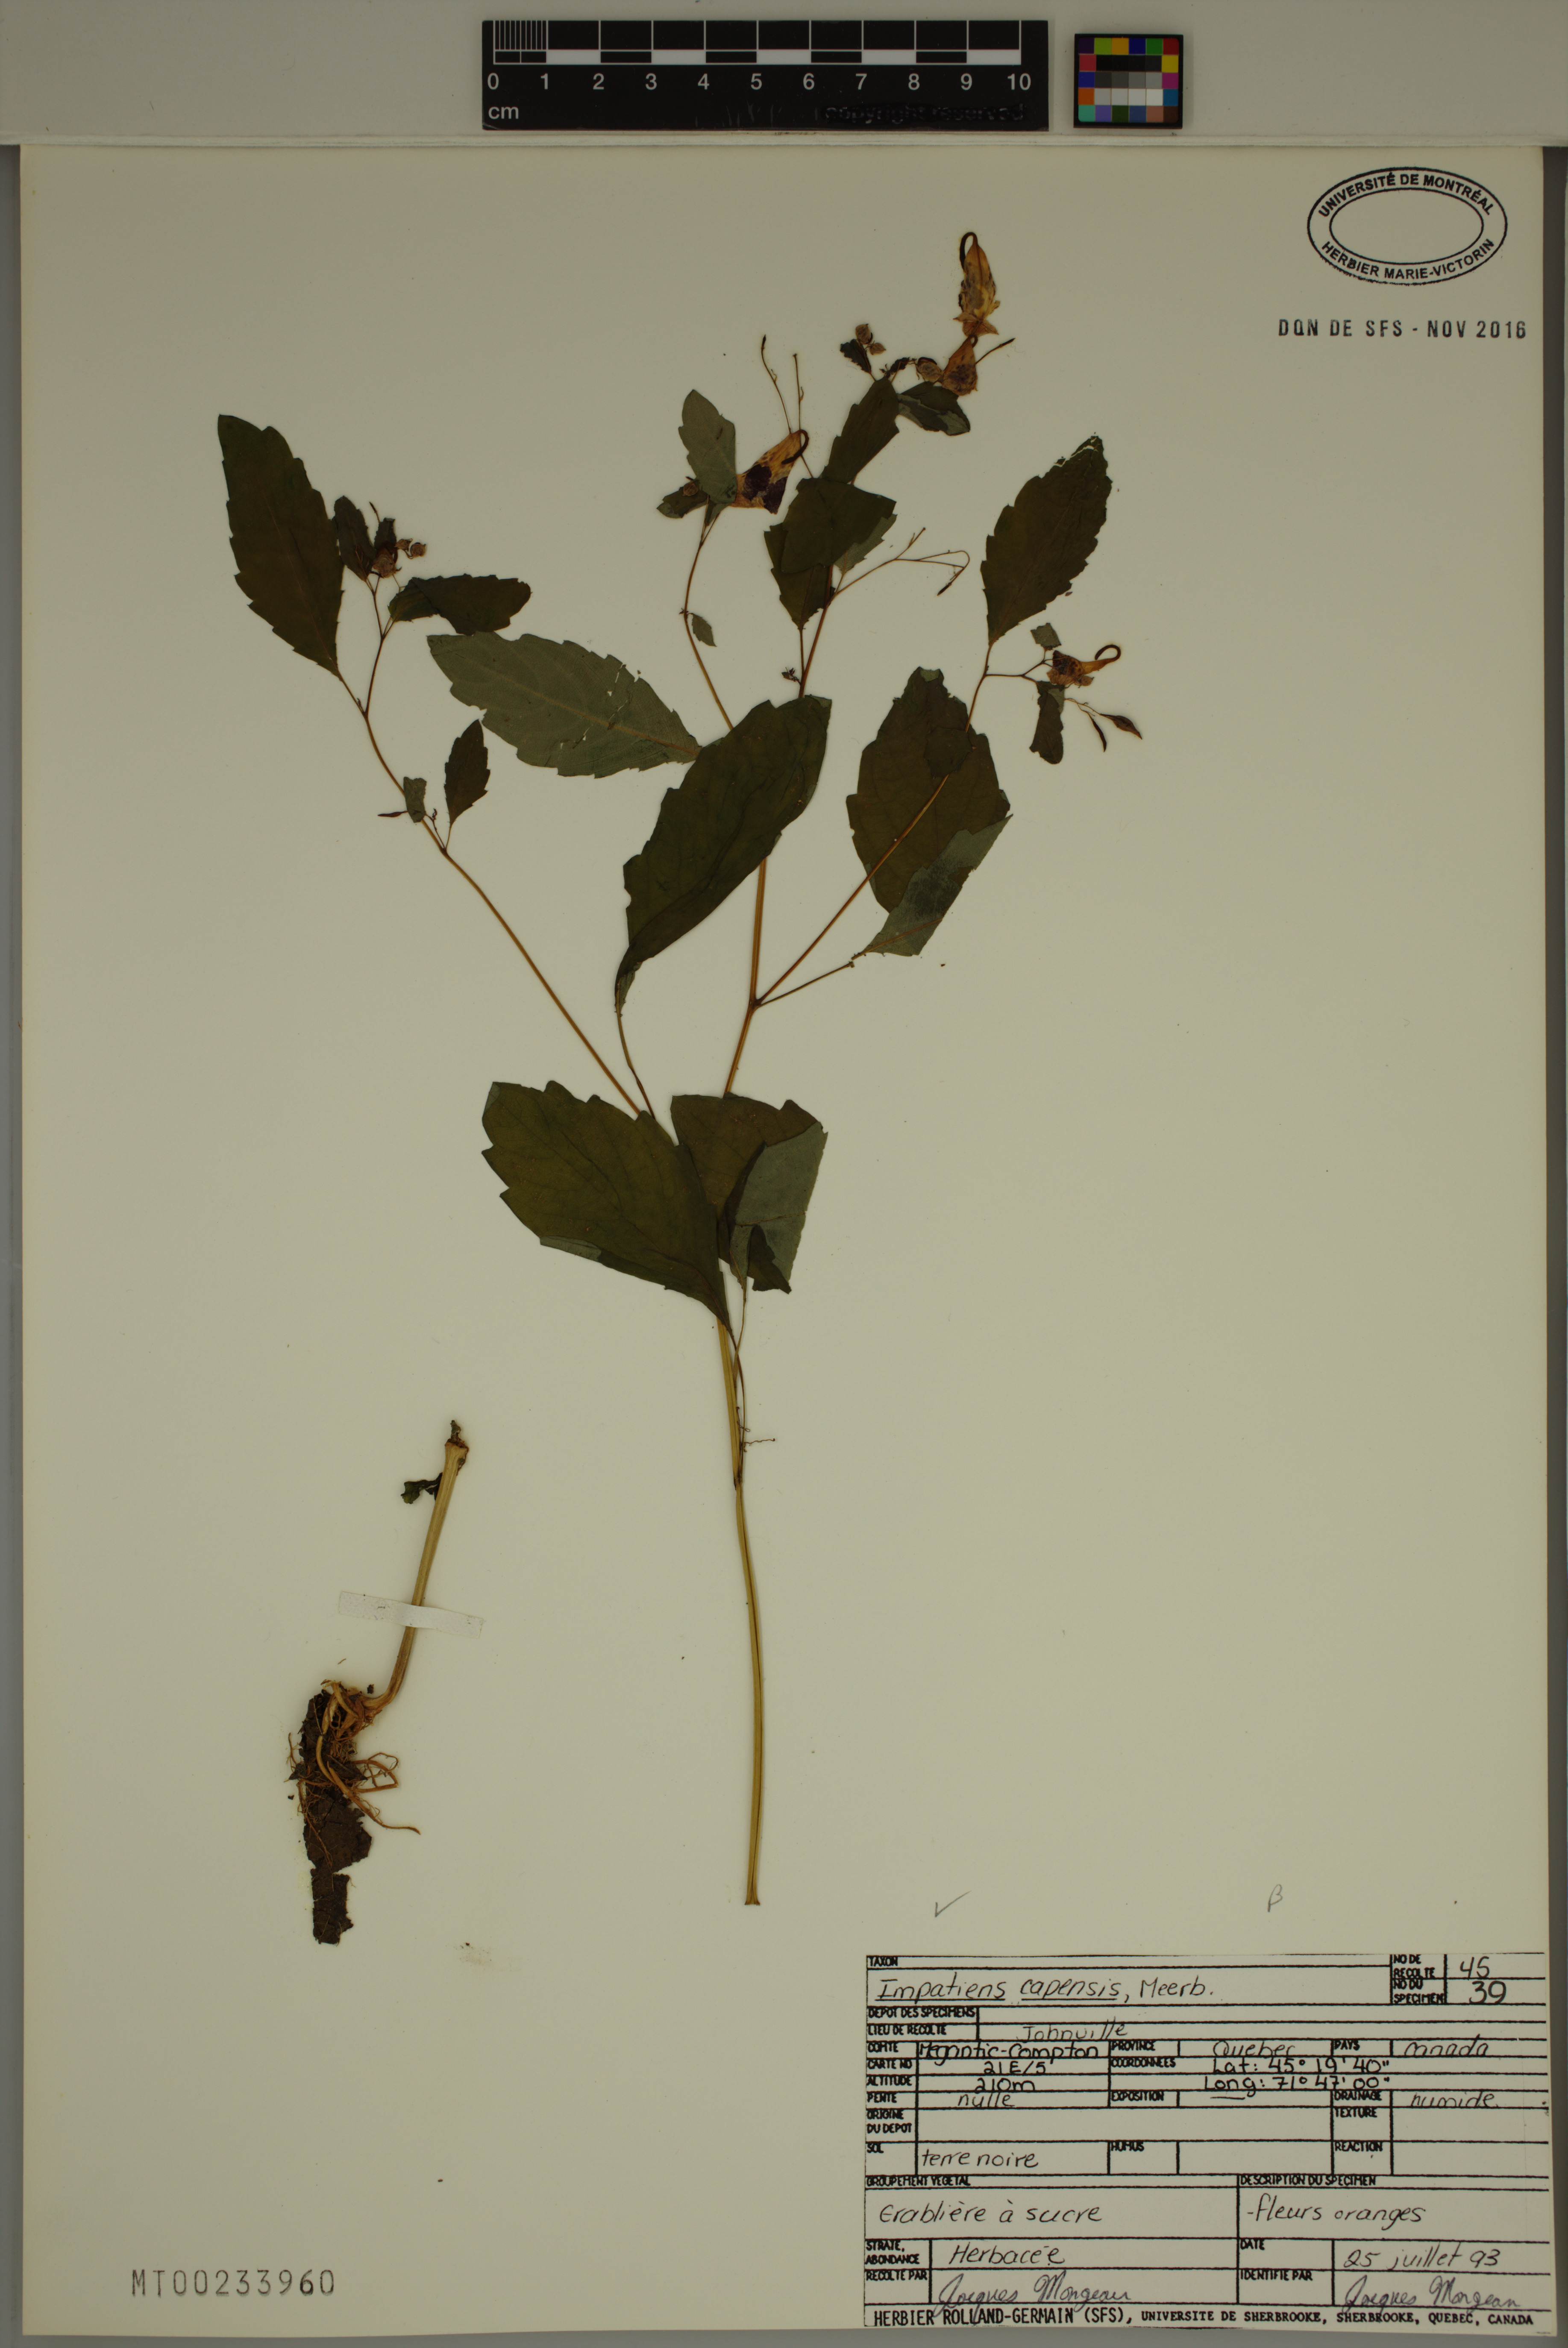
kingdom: Plantae
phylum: Tracheophyta
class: Magnoliopsida
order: Ericales
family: Balsaminaceae
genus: Impatiens
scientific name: Impatiens capensis
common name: Orange balsam
